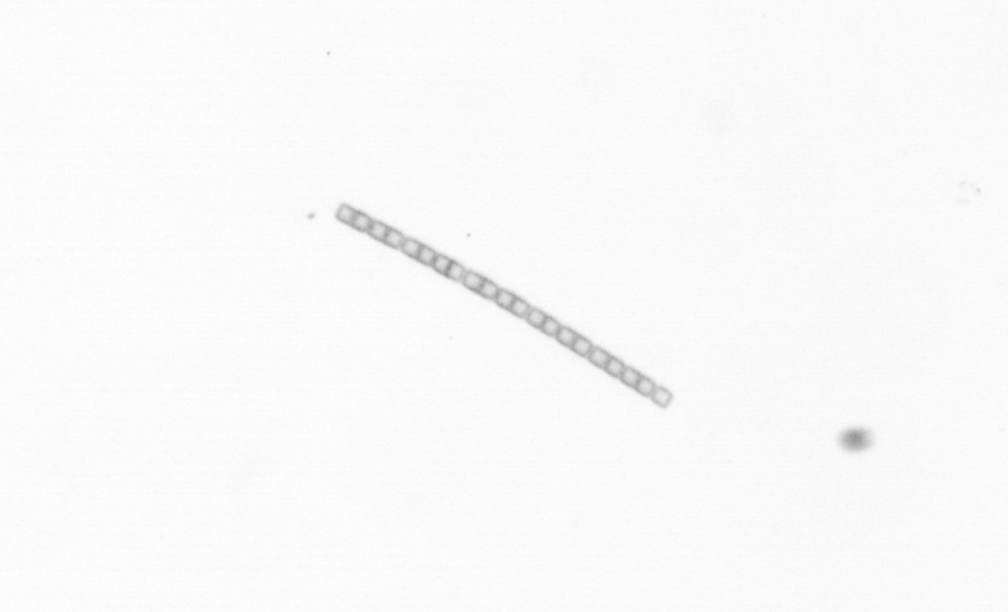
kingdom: Chromista
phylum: Ochrophyta
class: Bacillariophyceae
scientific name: Bacillariophyceae
